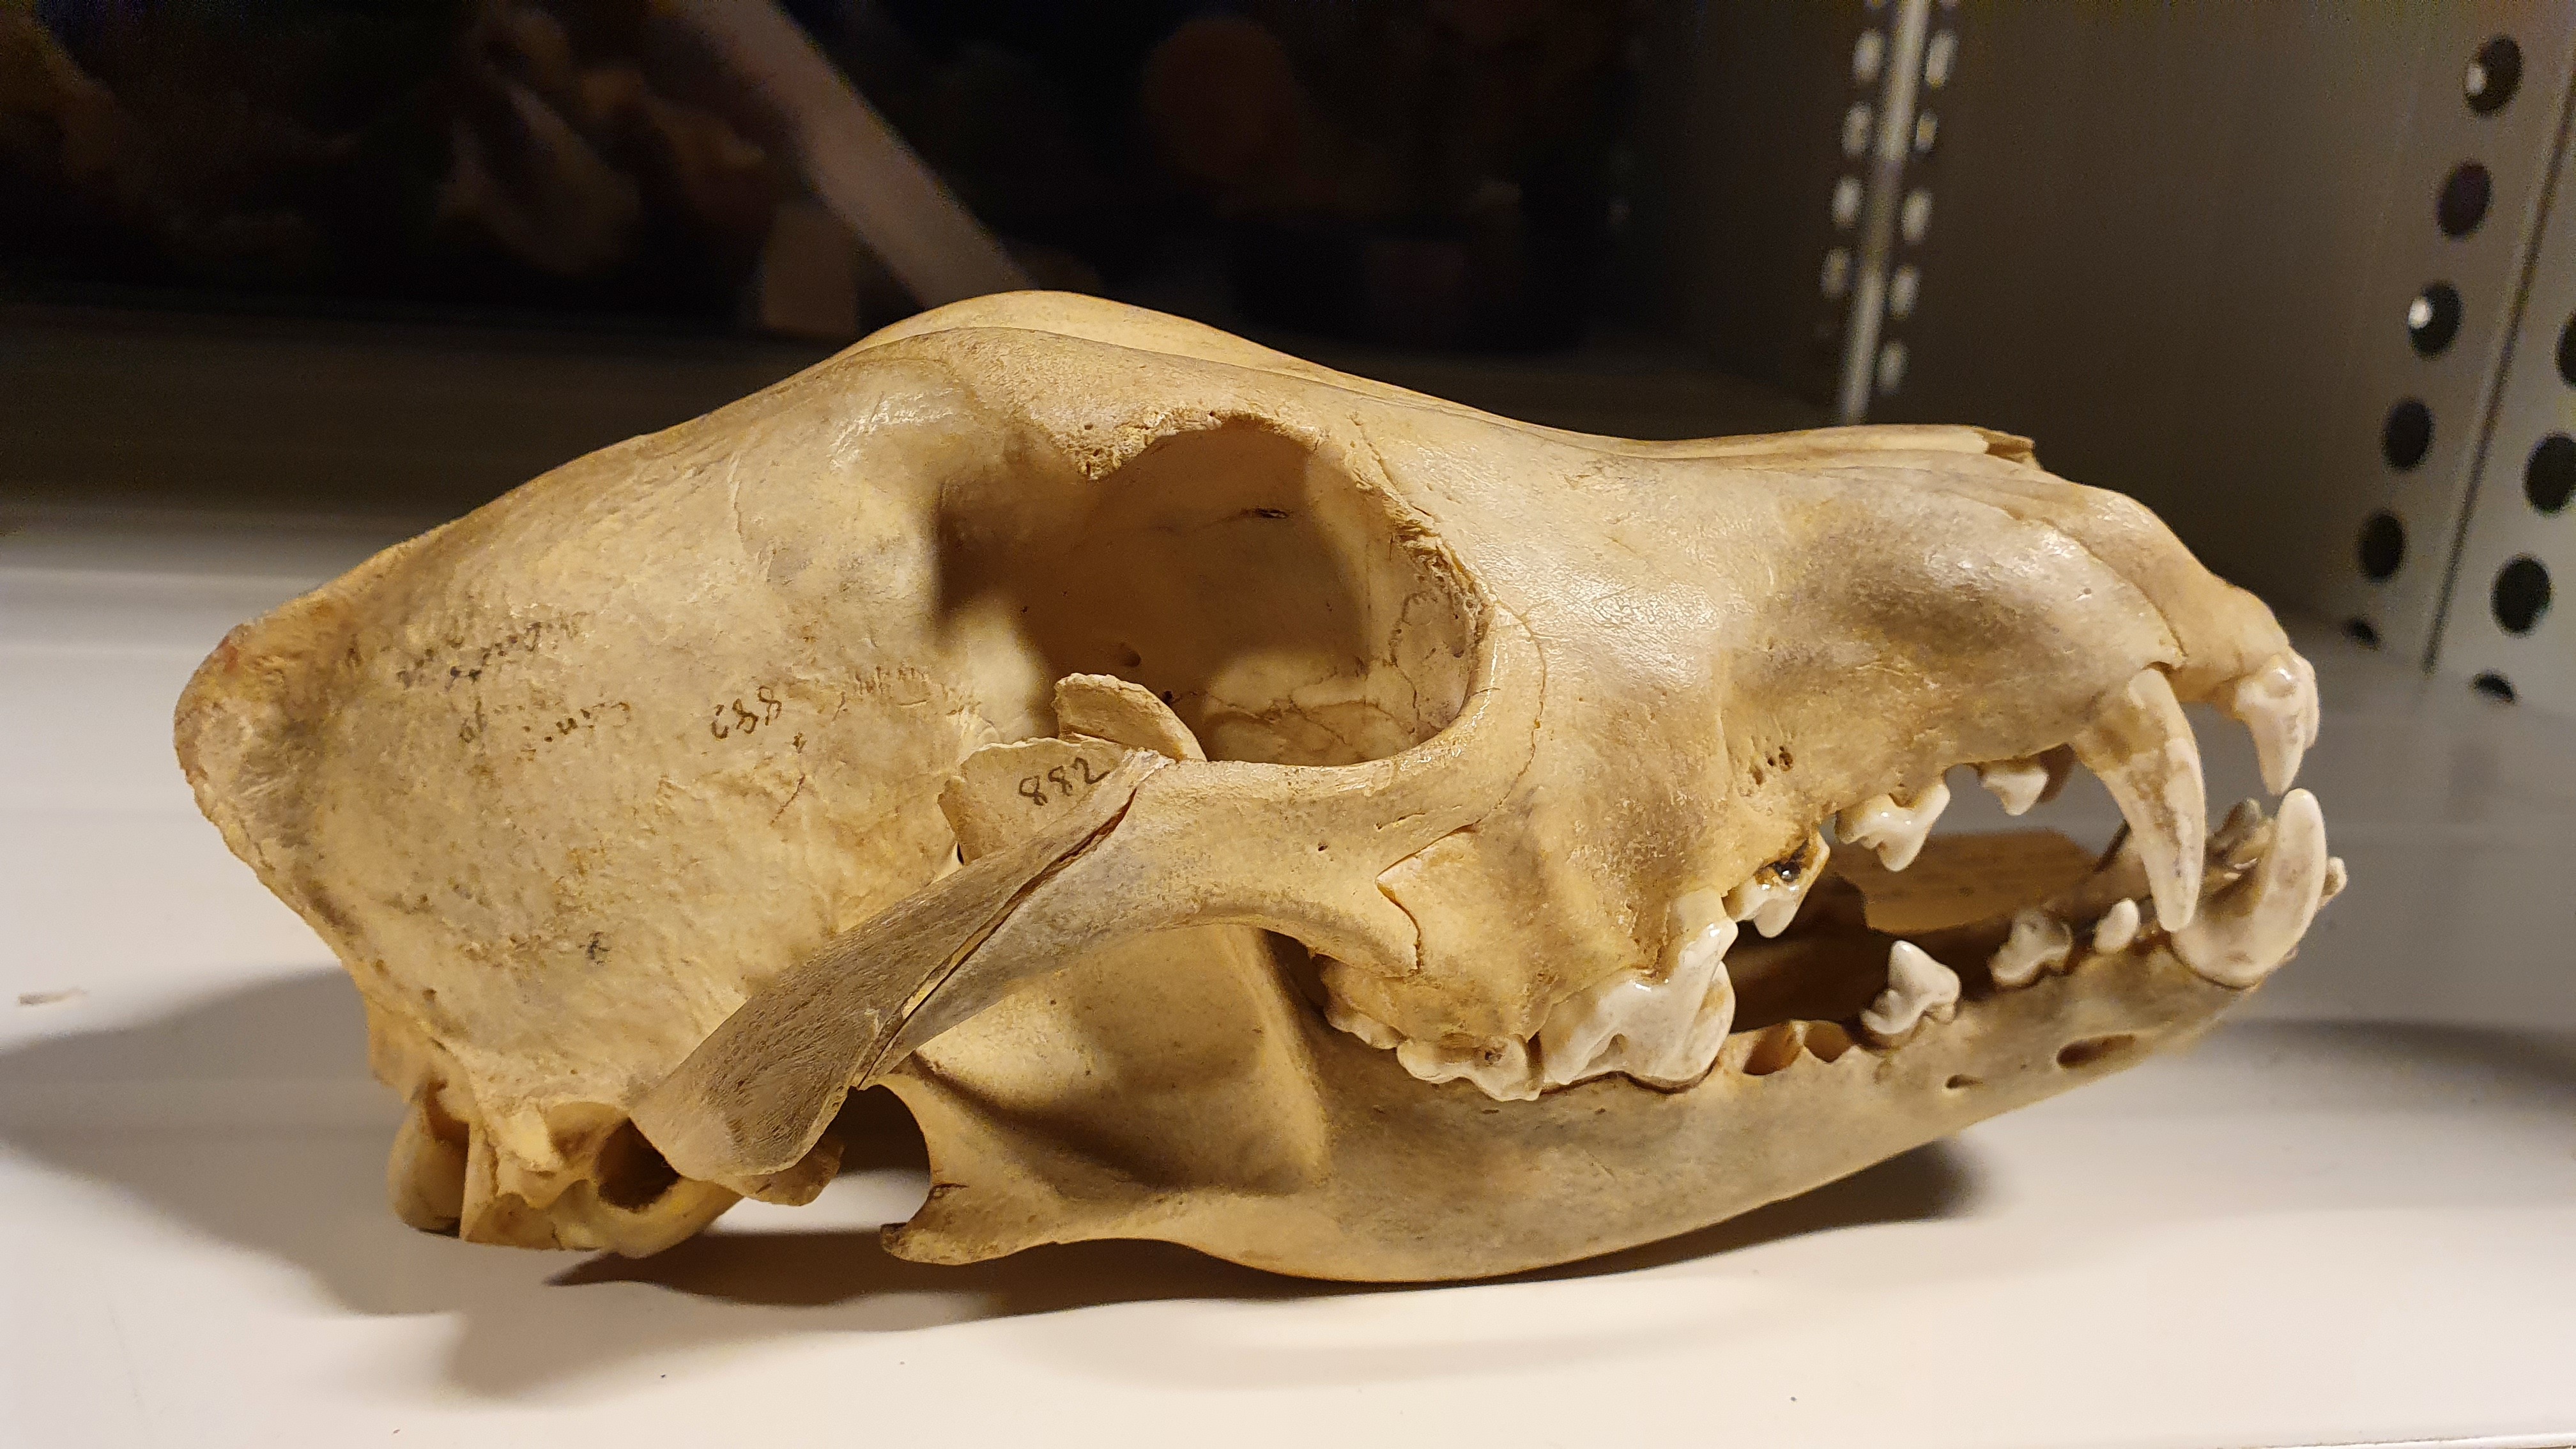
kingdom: Animalia
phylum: Chordata
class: Mammalia
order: Carnivora
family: Canidae
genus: Canis
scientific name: Canis lupus
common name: Gray wolf
